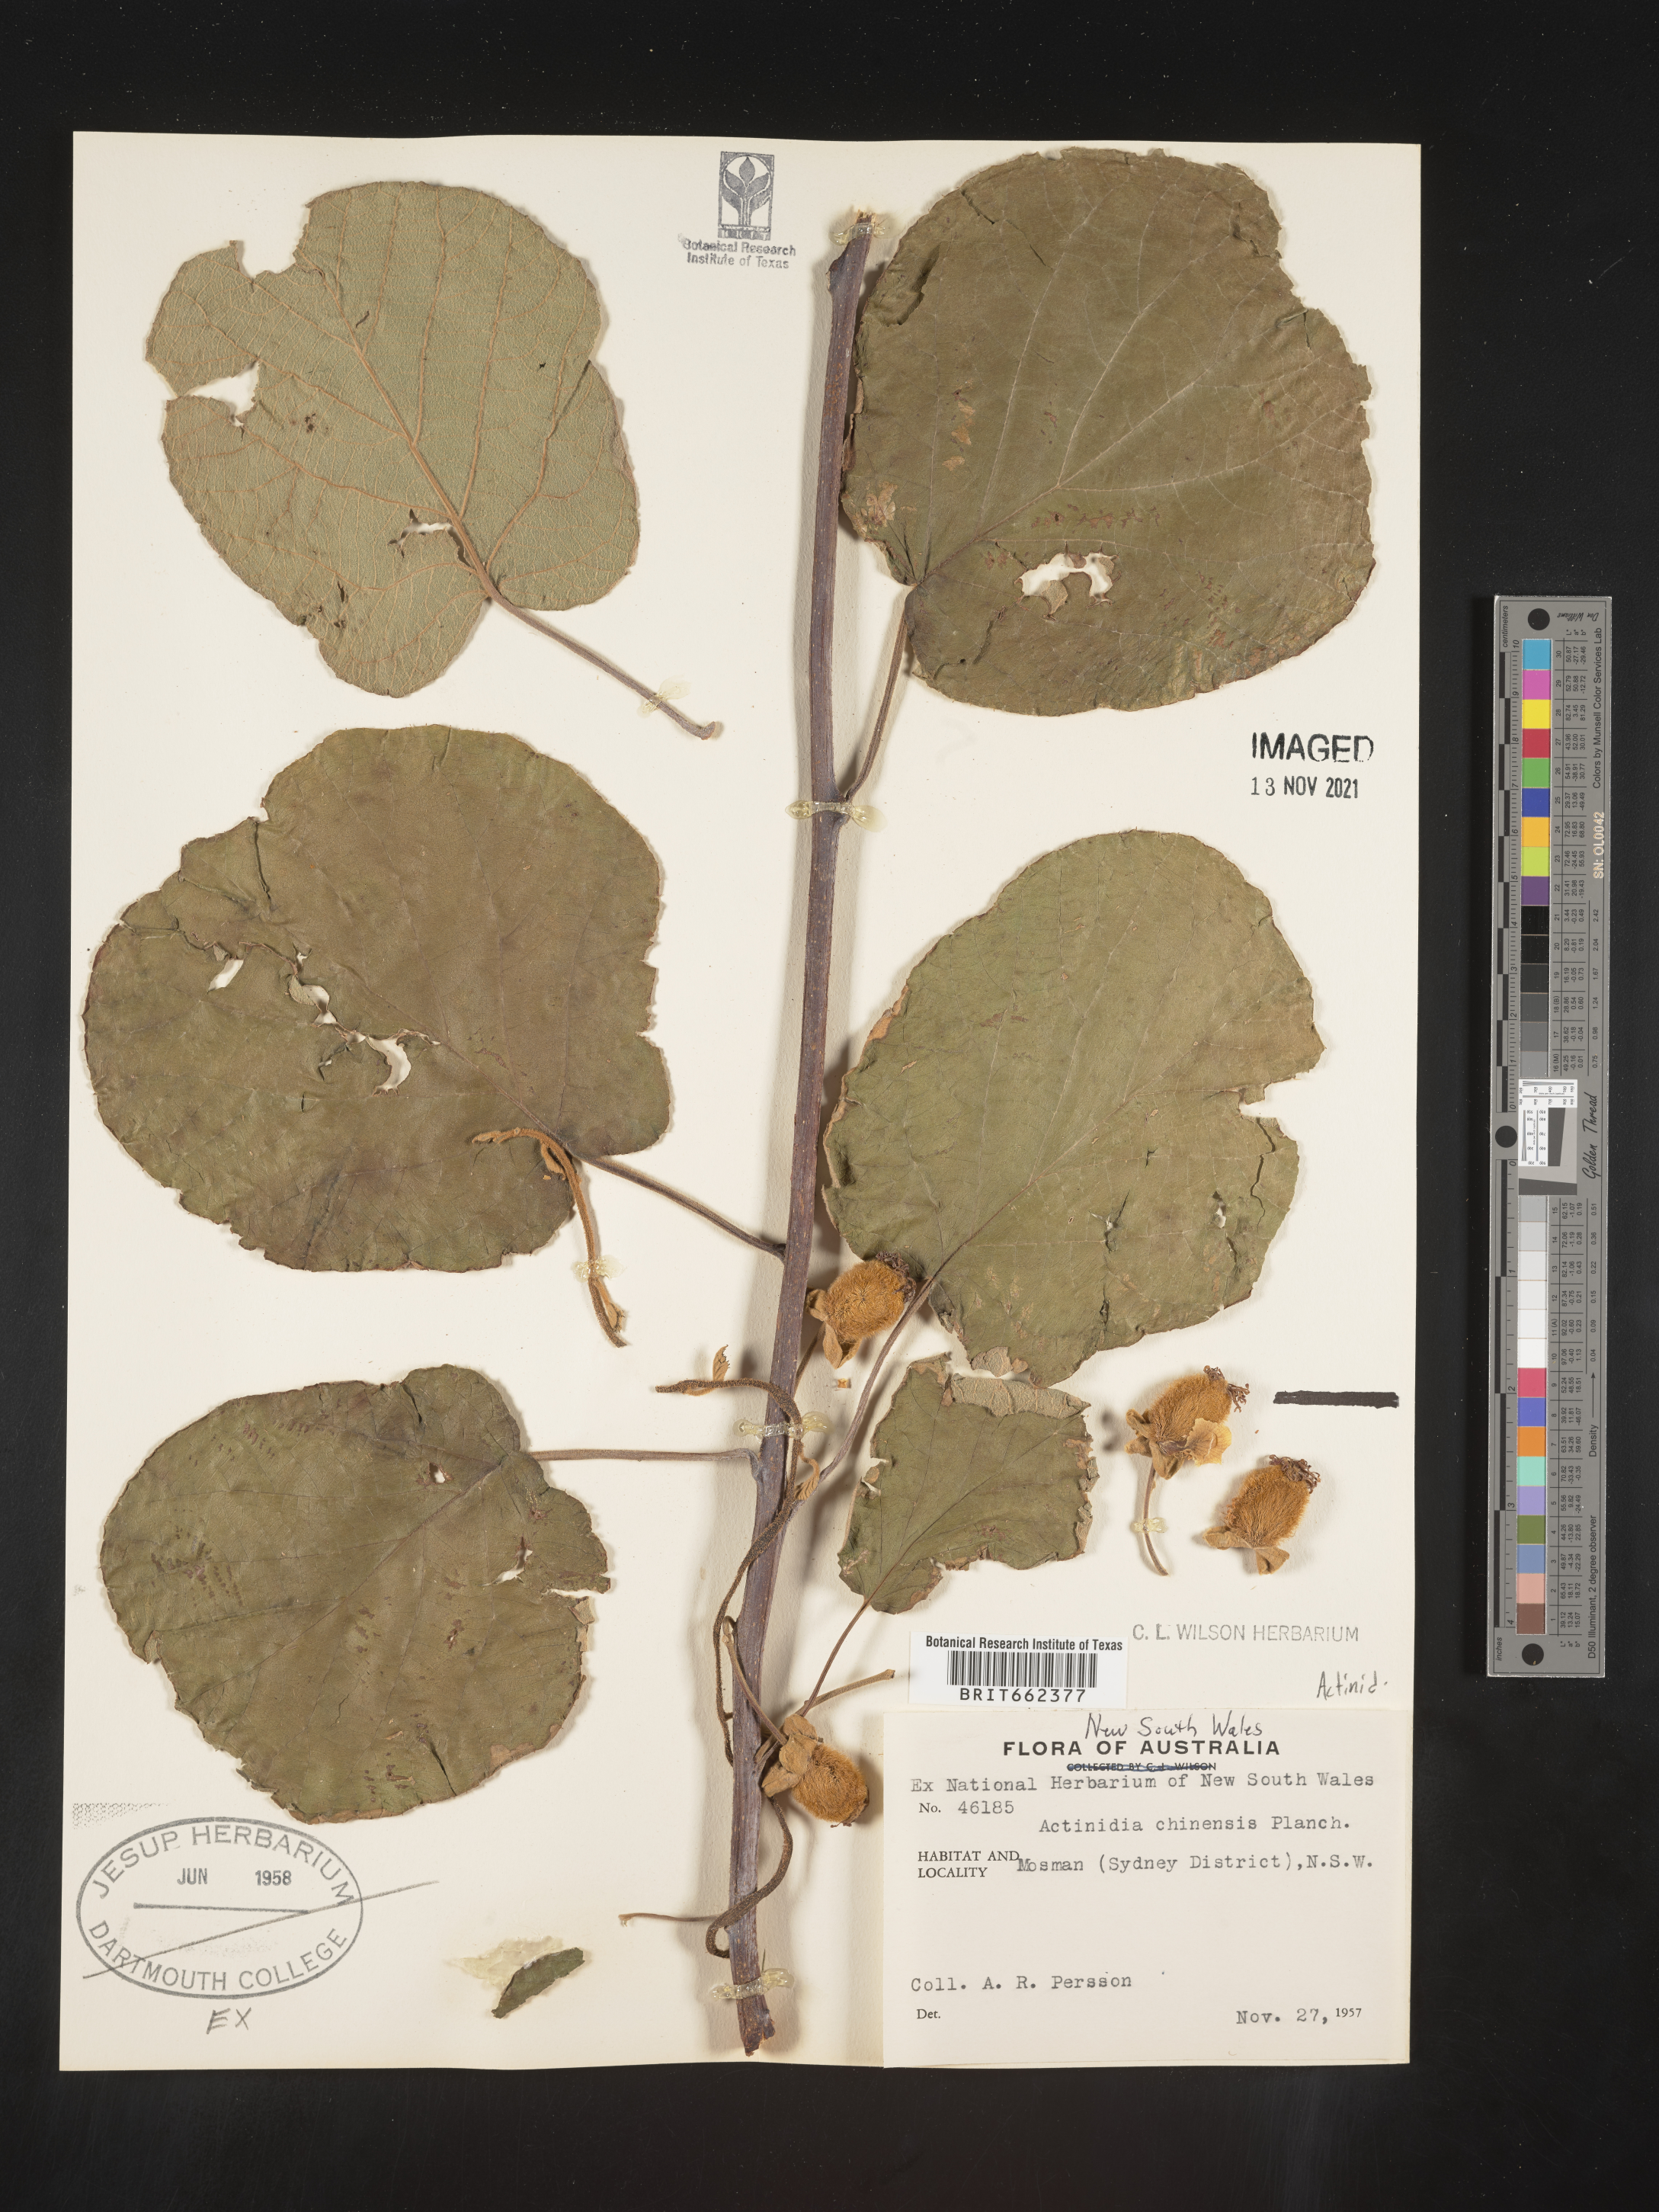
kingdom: Plantae
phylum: Tracheophyta
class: Magnoliopsida
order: Ericales
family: Actinidiaceae
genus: Actinidia
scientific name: Actinidia
